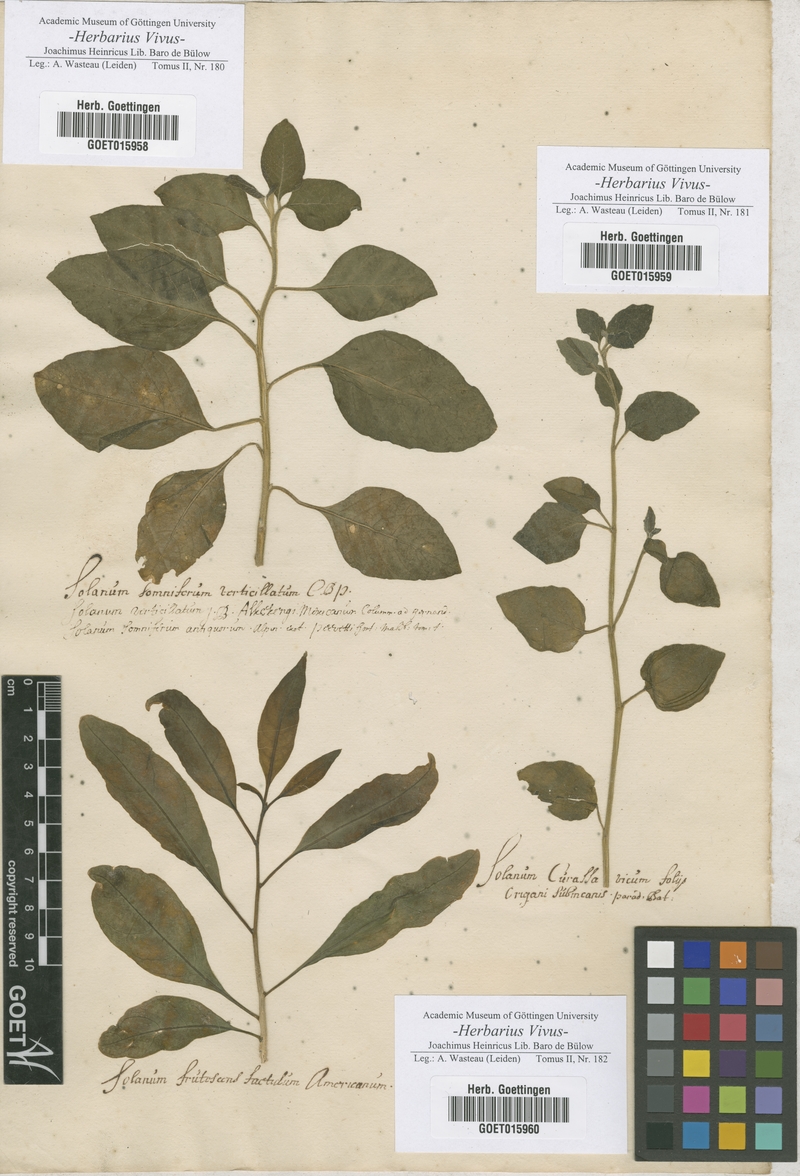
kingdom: Plantae
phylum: Tracheophyta
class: Magnoliopsida
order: Solanales
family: Solanaceae
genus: Solanum
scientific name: Solanum
